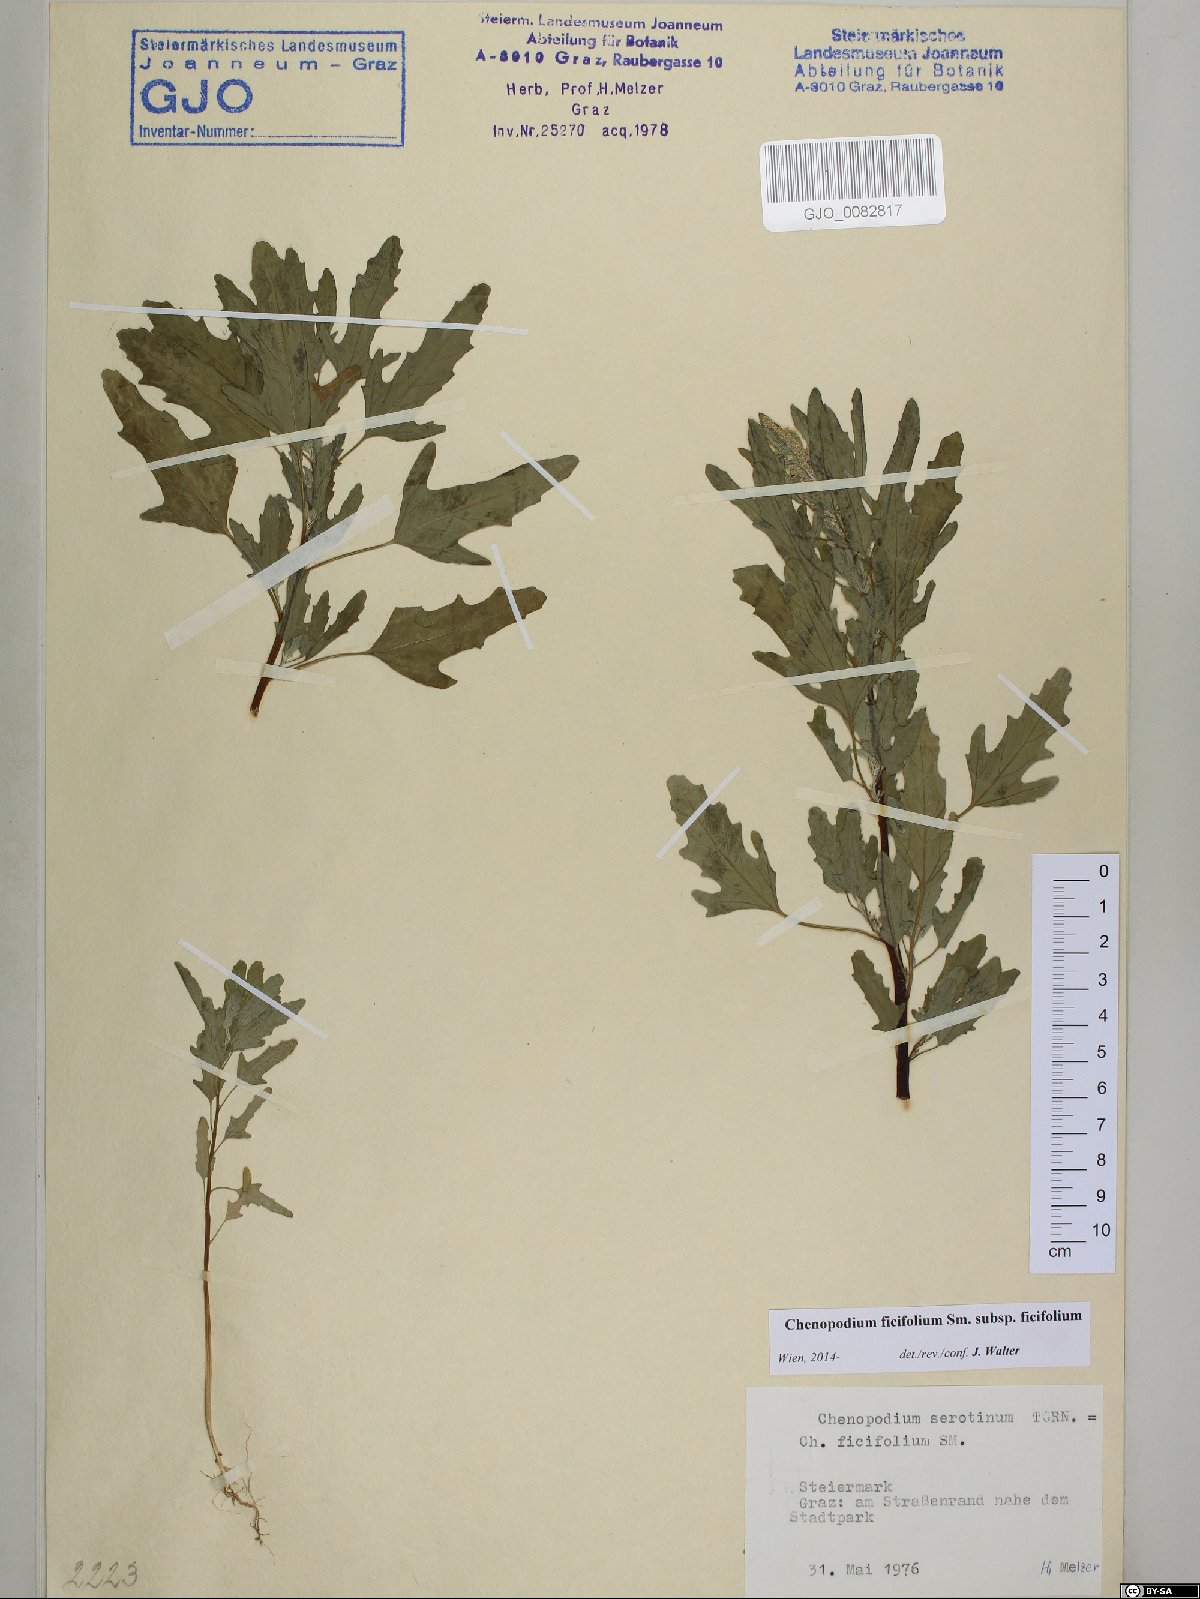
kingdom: Plantae
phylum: Tracheophyta
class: Magnoliopsida
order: Caryophyllales
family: Amaranthaceae
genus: Chenopodium
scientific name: Chenopodium ficifolium
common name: Fig-leaved goosefoot
